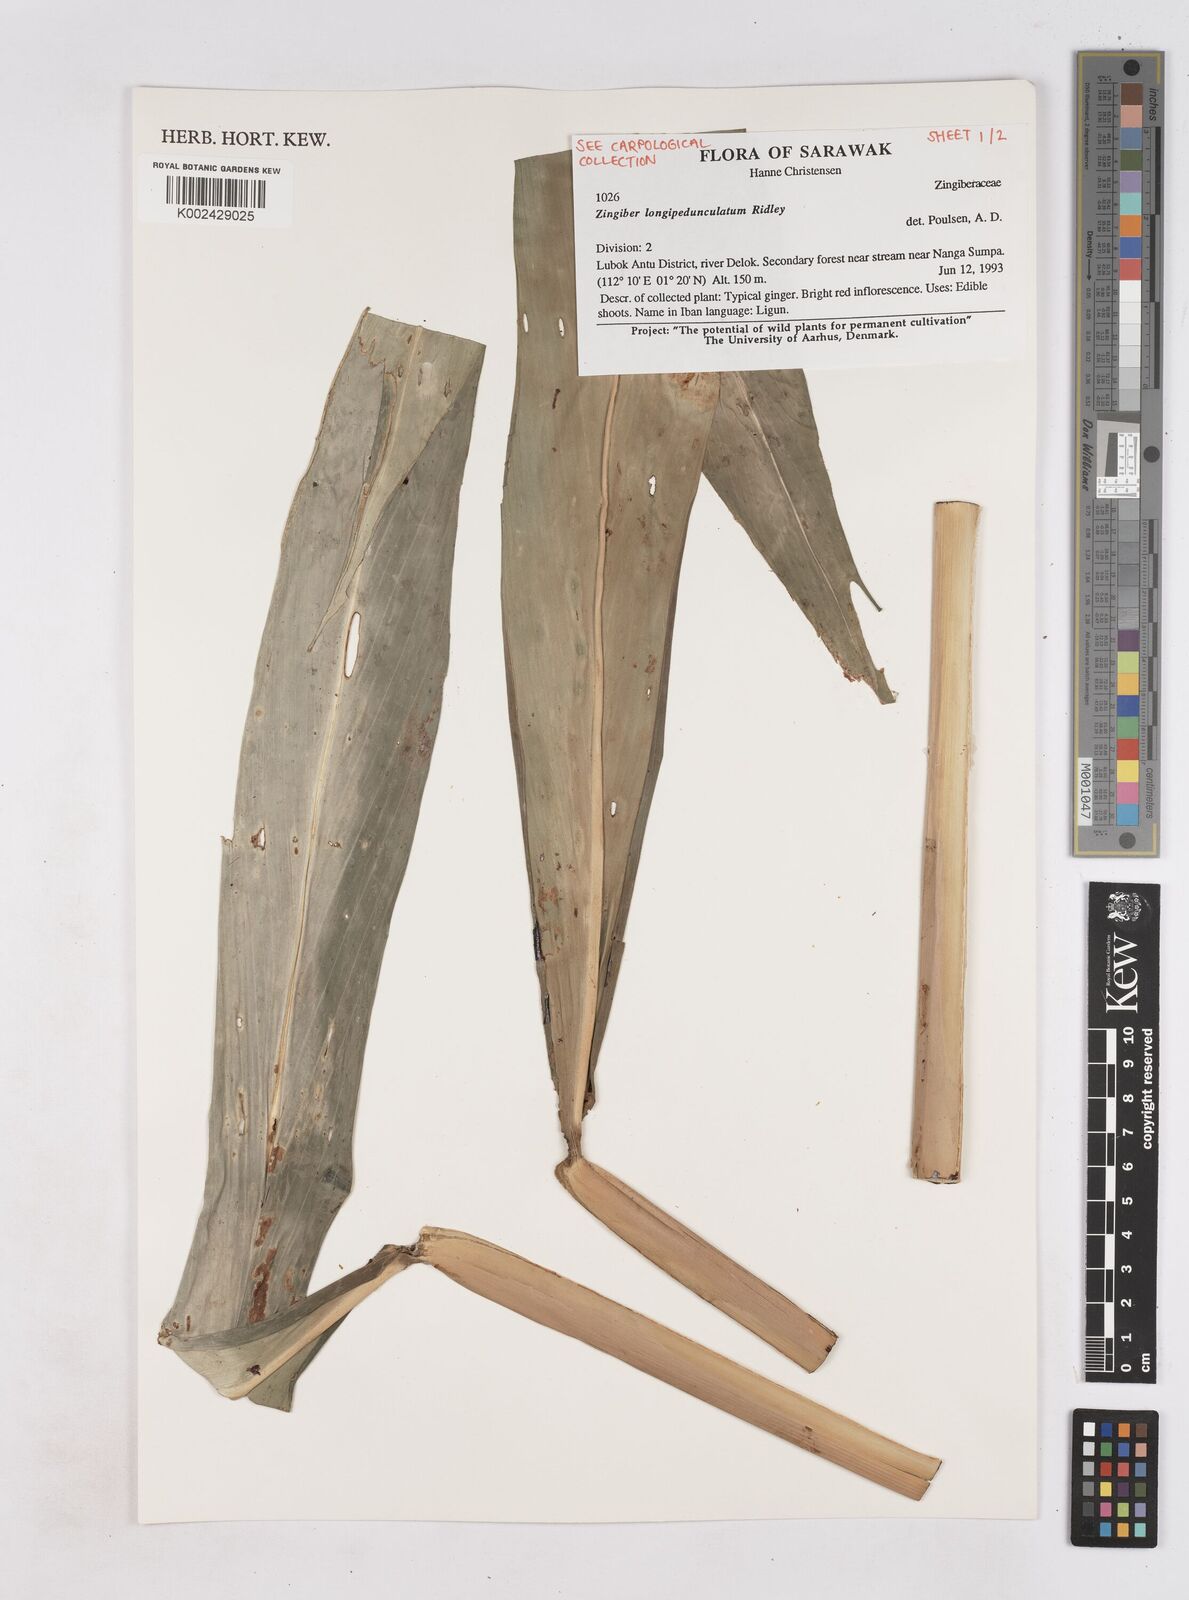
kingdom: Plantae
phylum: Tracheophyta
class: Liliopsida
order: Zingiberales
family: Zingiberaceae
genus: Zingiber
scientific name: Zingiber longipedunculatum
